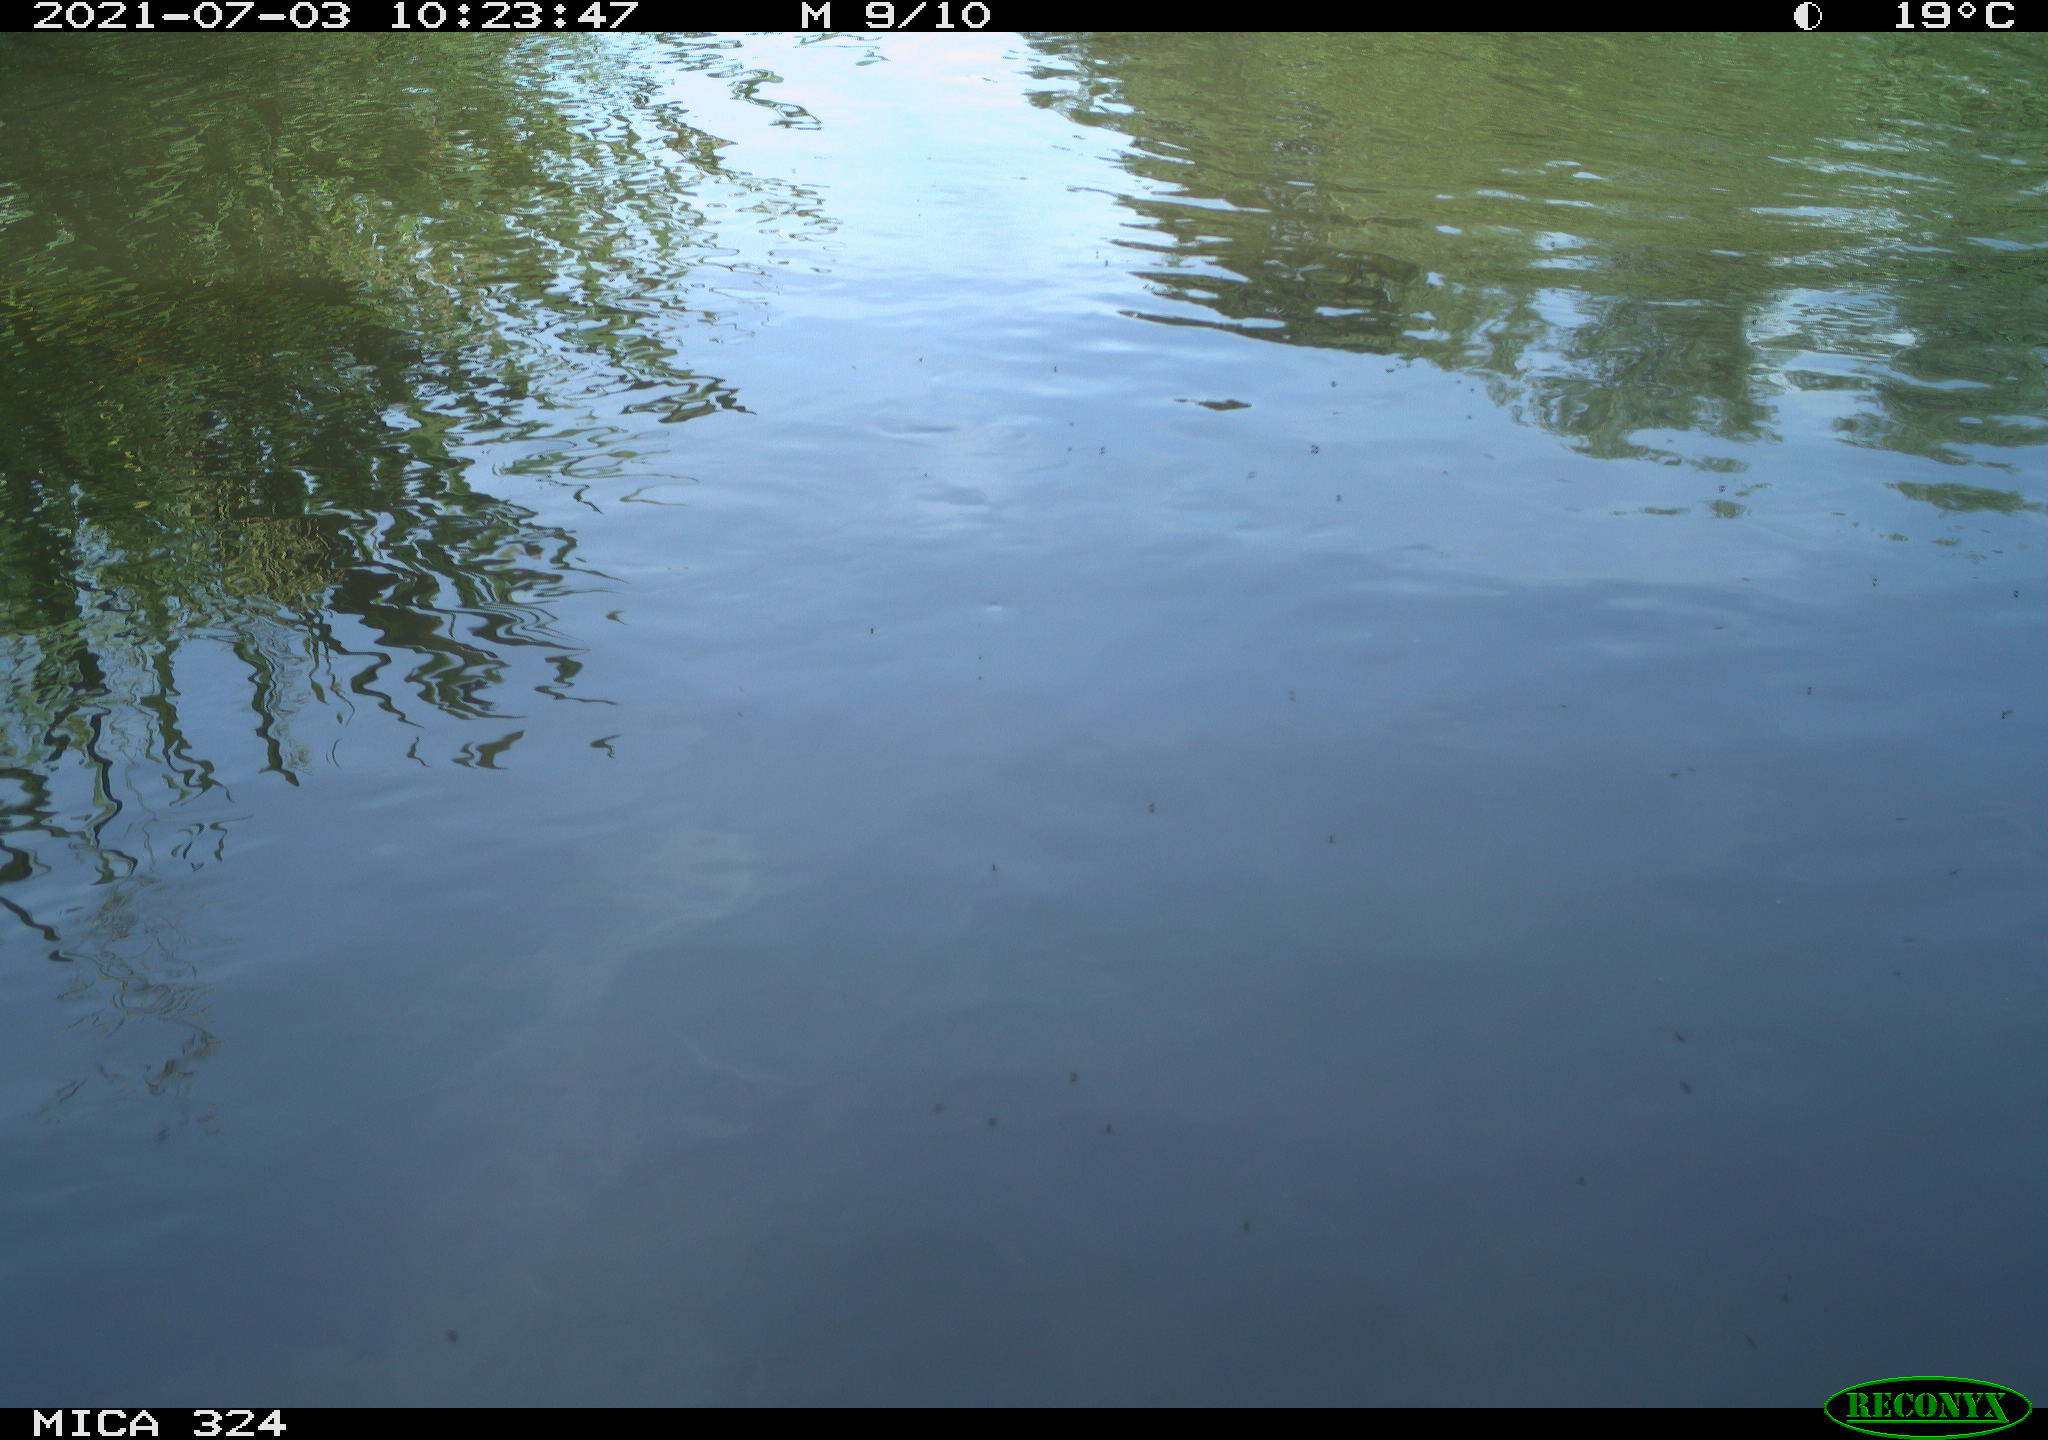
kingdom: Animalia
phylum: Chordata
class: Aves
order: Gruiformes
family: Rallidae
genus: Gallinula
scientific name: Gallinula chloropus
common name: Common moorhen
